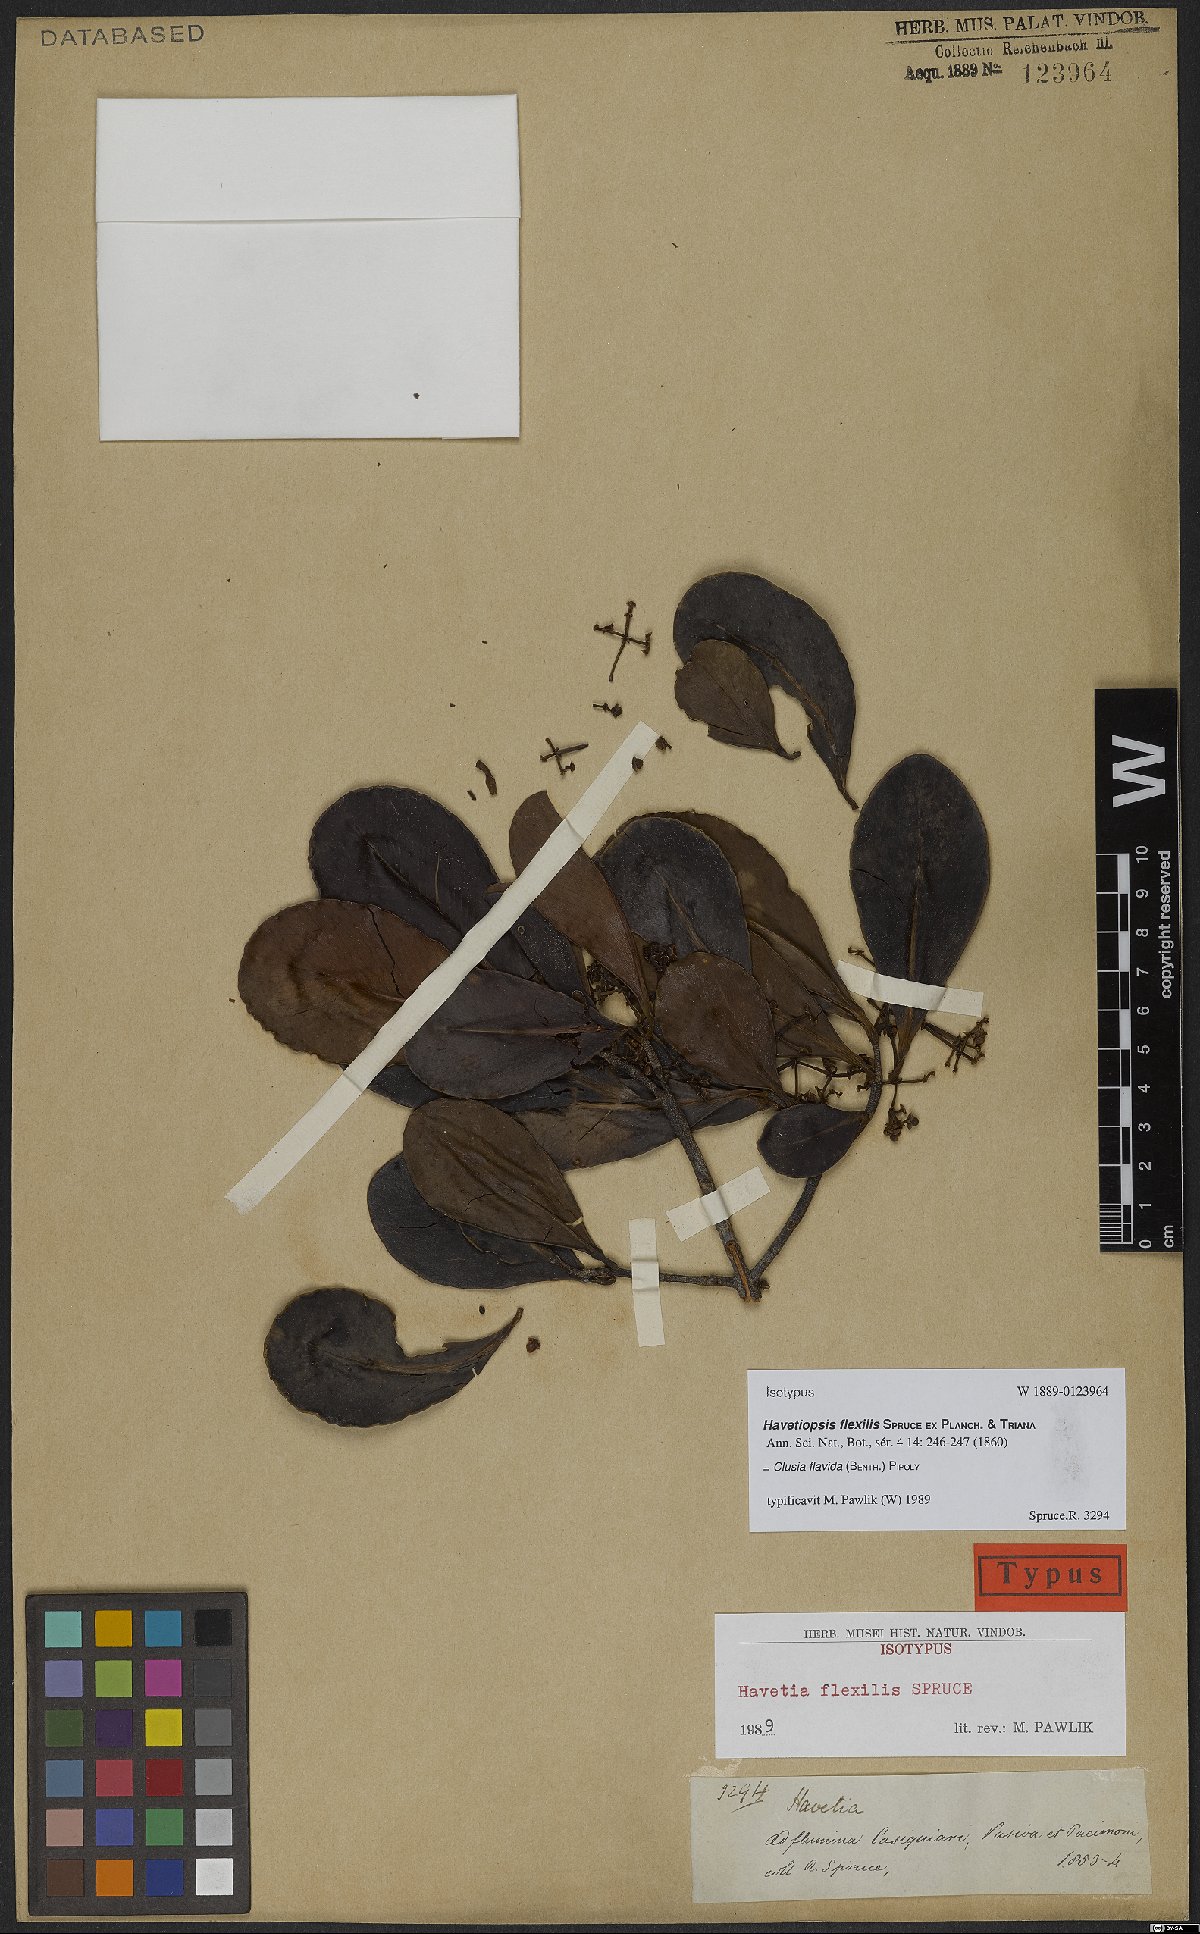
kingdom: Plantae
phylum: Tracheophyta
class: Magnoliopsida
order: Malpighiales
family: Clusiaceae
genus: Clusia
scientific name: Clusia flavida
